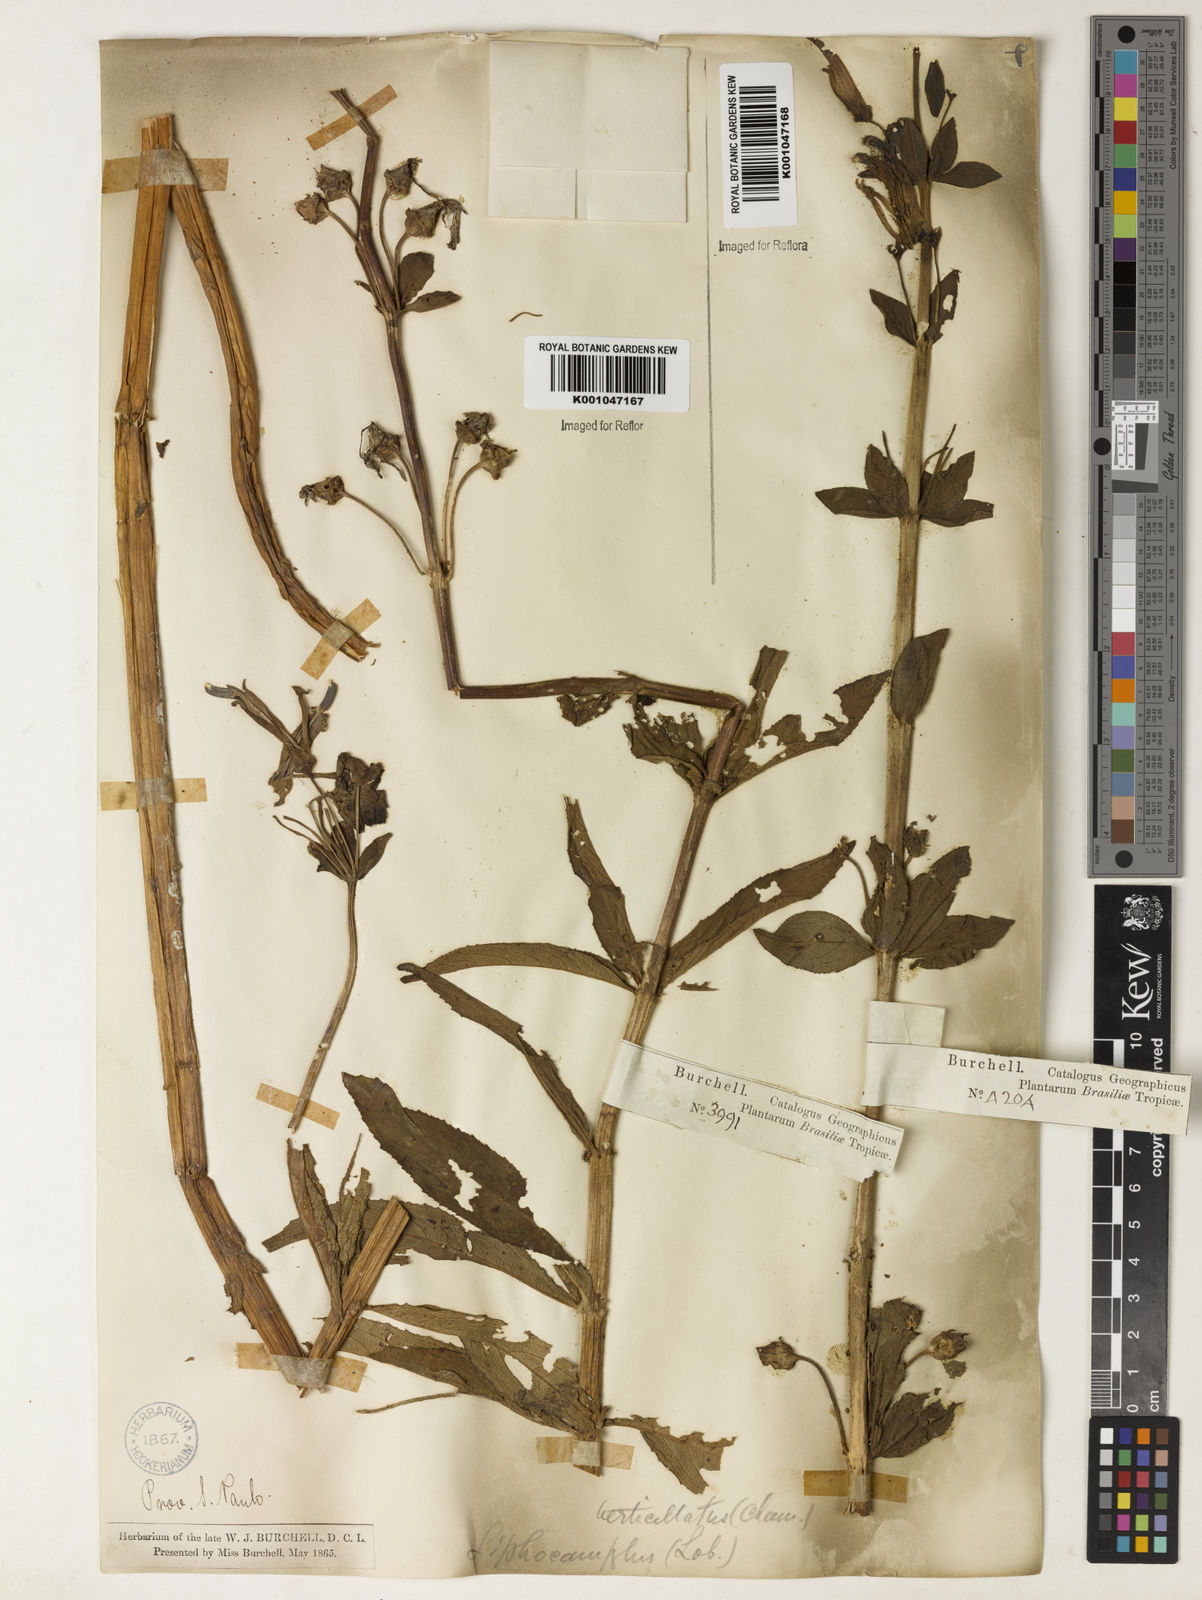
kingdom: Plantae
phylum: Tracheophyta
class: Magnoliopsida
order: Asterales
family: Campanulaceae
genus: Siphocampylus
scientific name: Siphocampylus verticillatus
